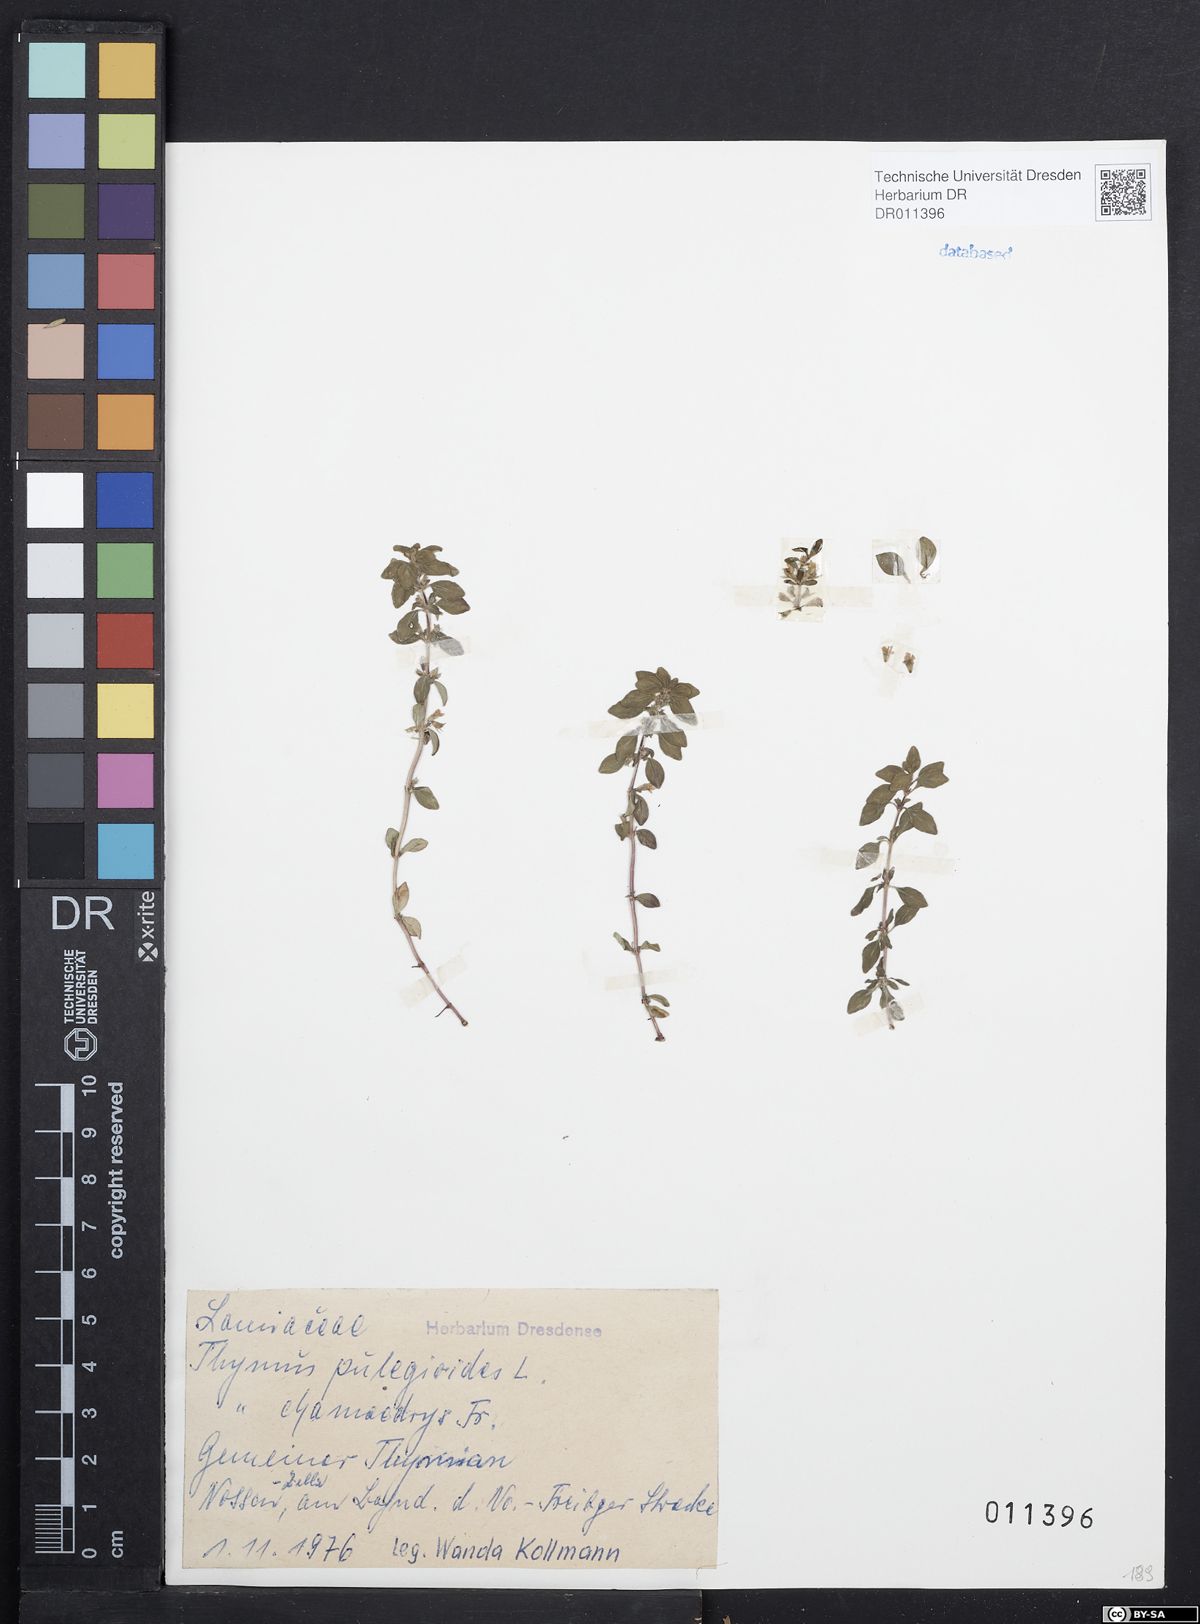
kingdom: Plantae
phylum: Tracheophyta
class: Magnoliopsida
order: Lamiales
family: Lamiaceae
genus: Thymus
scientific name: Thymus pulegioides
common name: Large thyme
